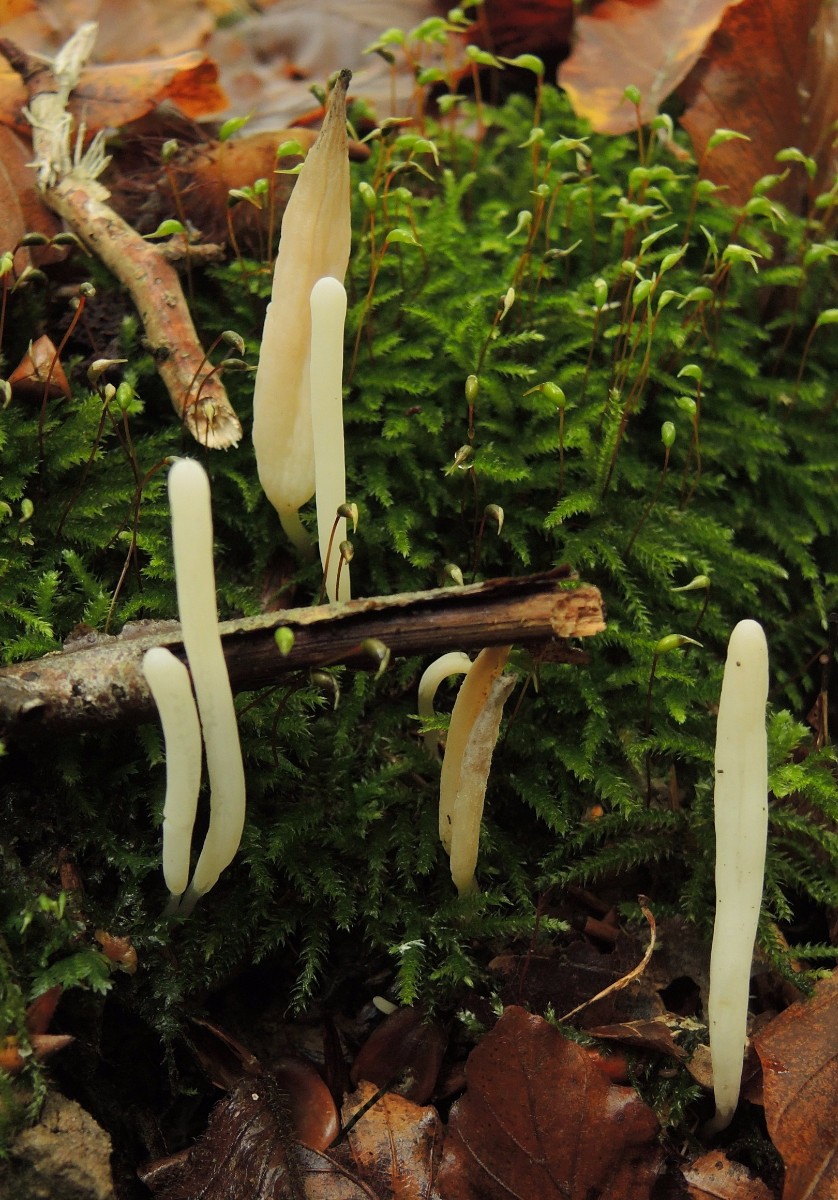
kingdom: Fungi
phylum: Basidiomycota
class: Agaricomycetes
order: Agaricales
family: Clavariaceae
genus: Clavaria
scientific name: Clavaria falcata
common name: hvid køllesvamp
